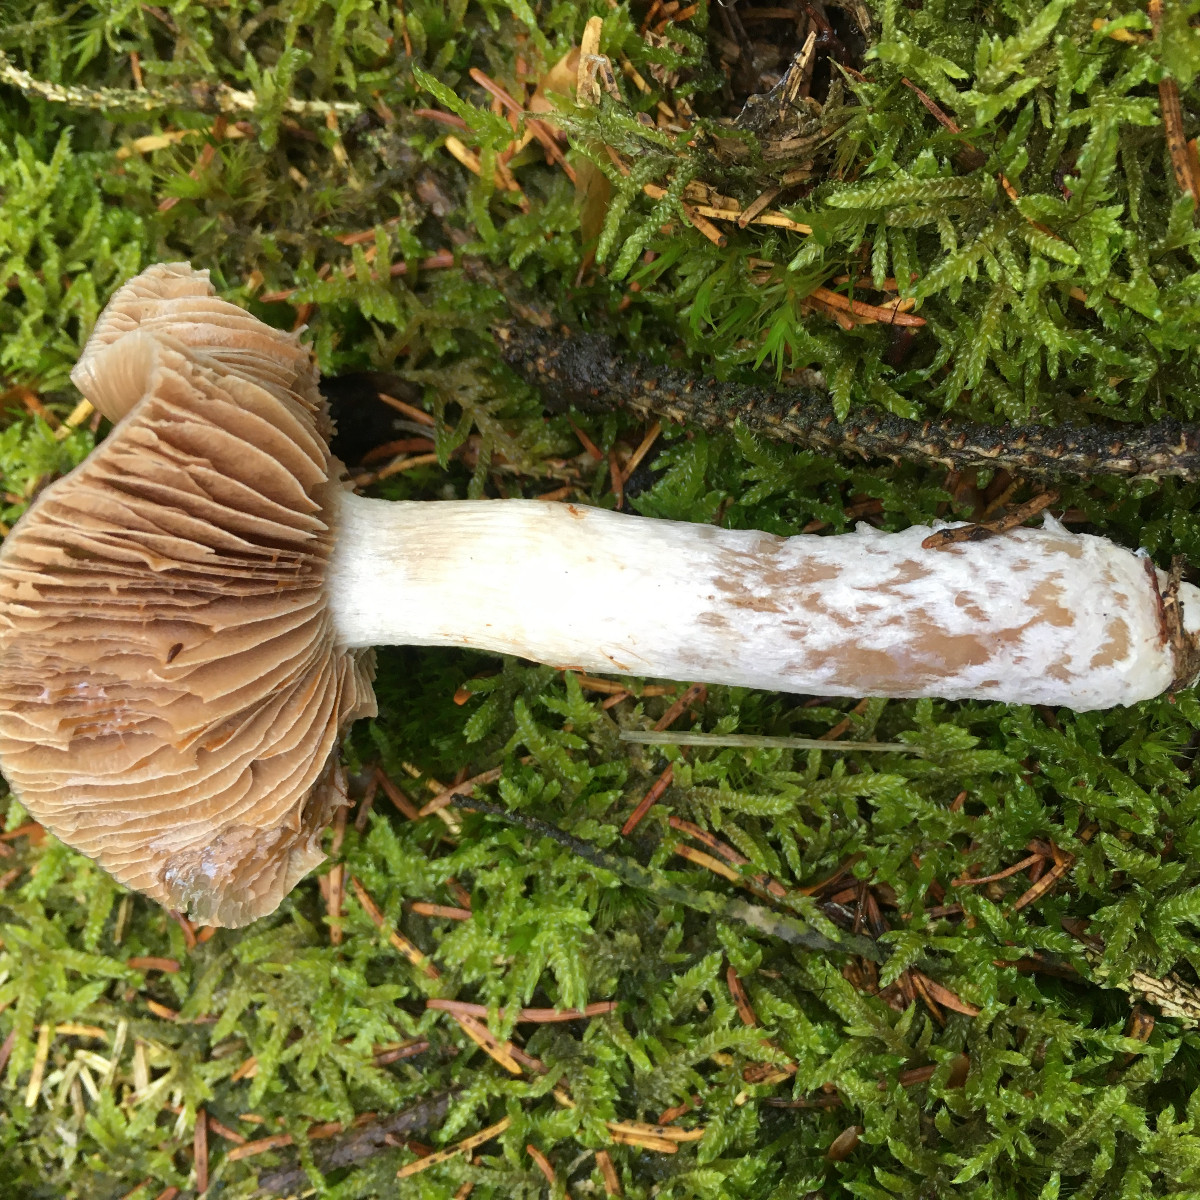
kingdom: Fungi
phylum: Basidiomycota
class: Agaricomycetes
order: Agaricales
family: Cortinariaceae
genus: Cortinarius
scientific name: Cortinarius stillatitius
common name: honningduftende slørhat
